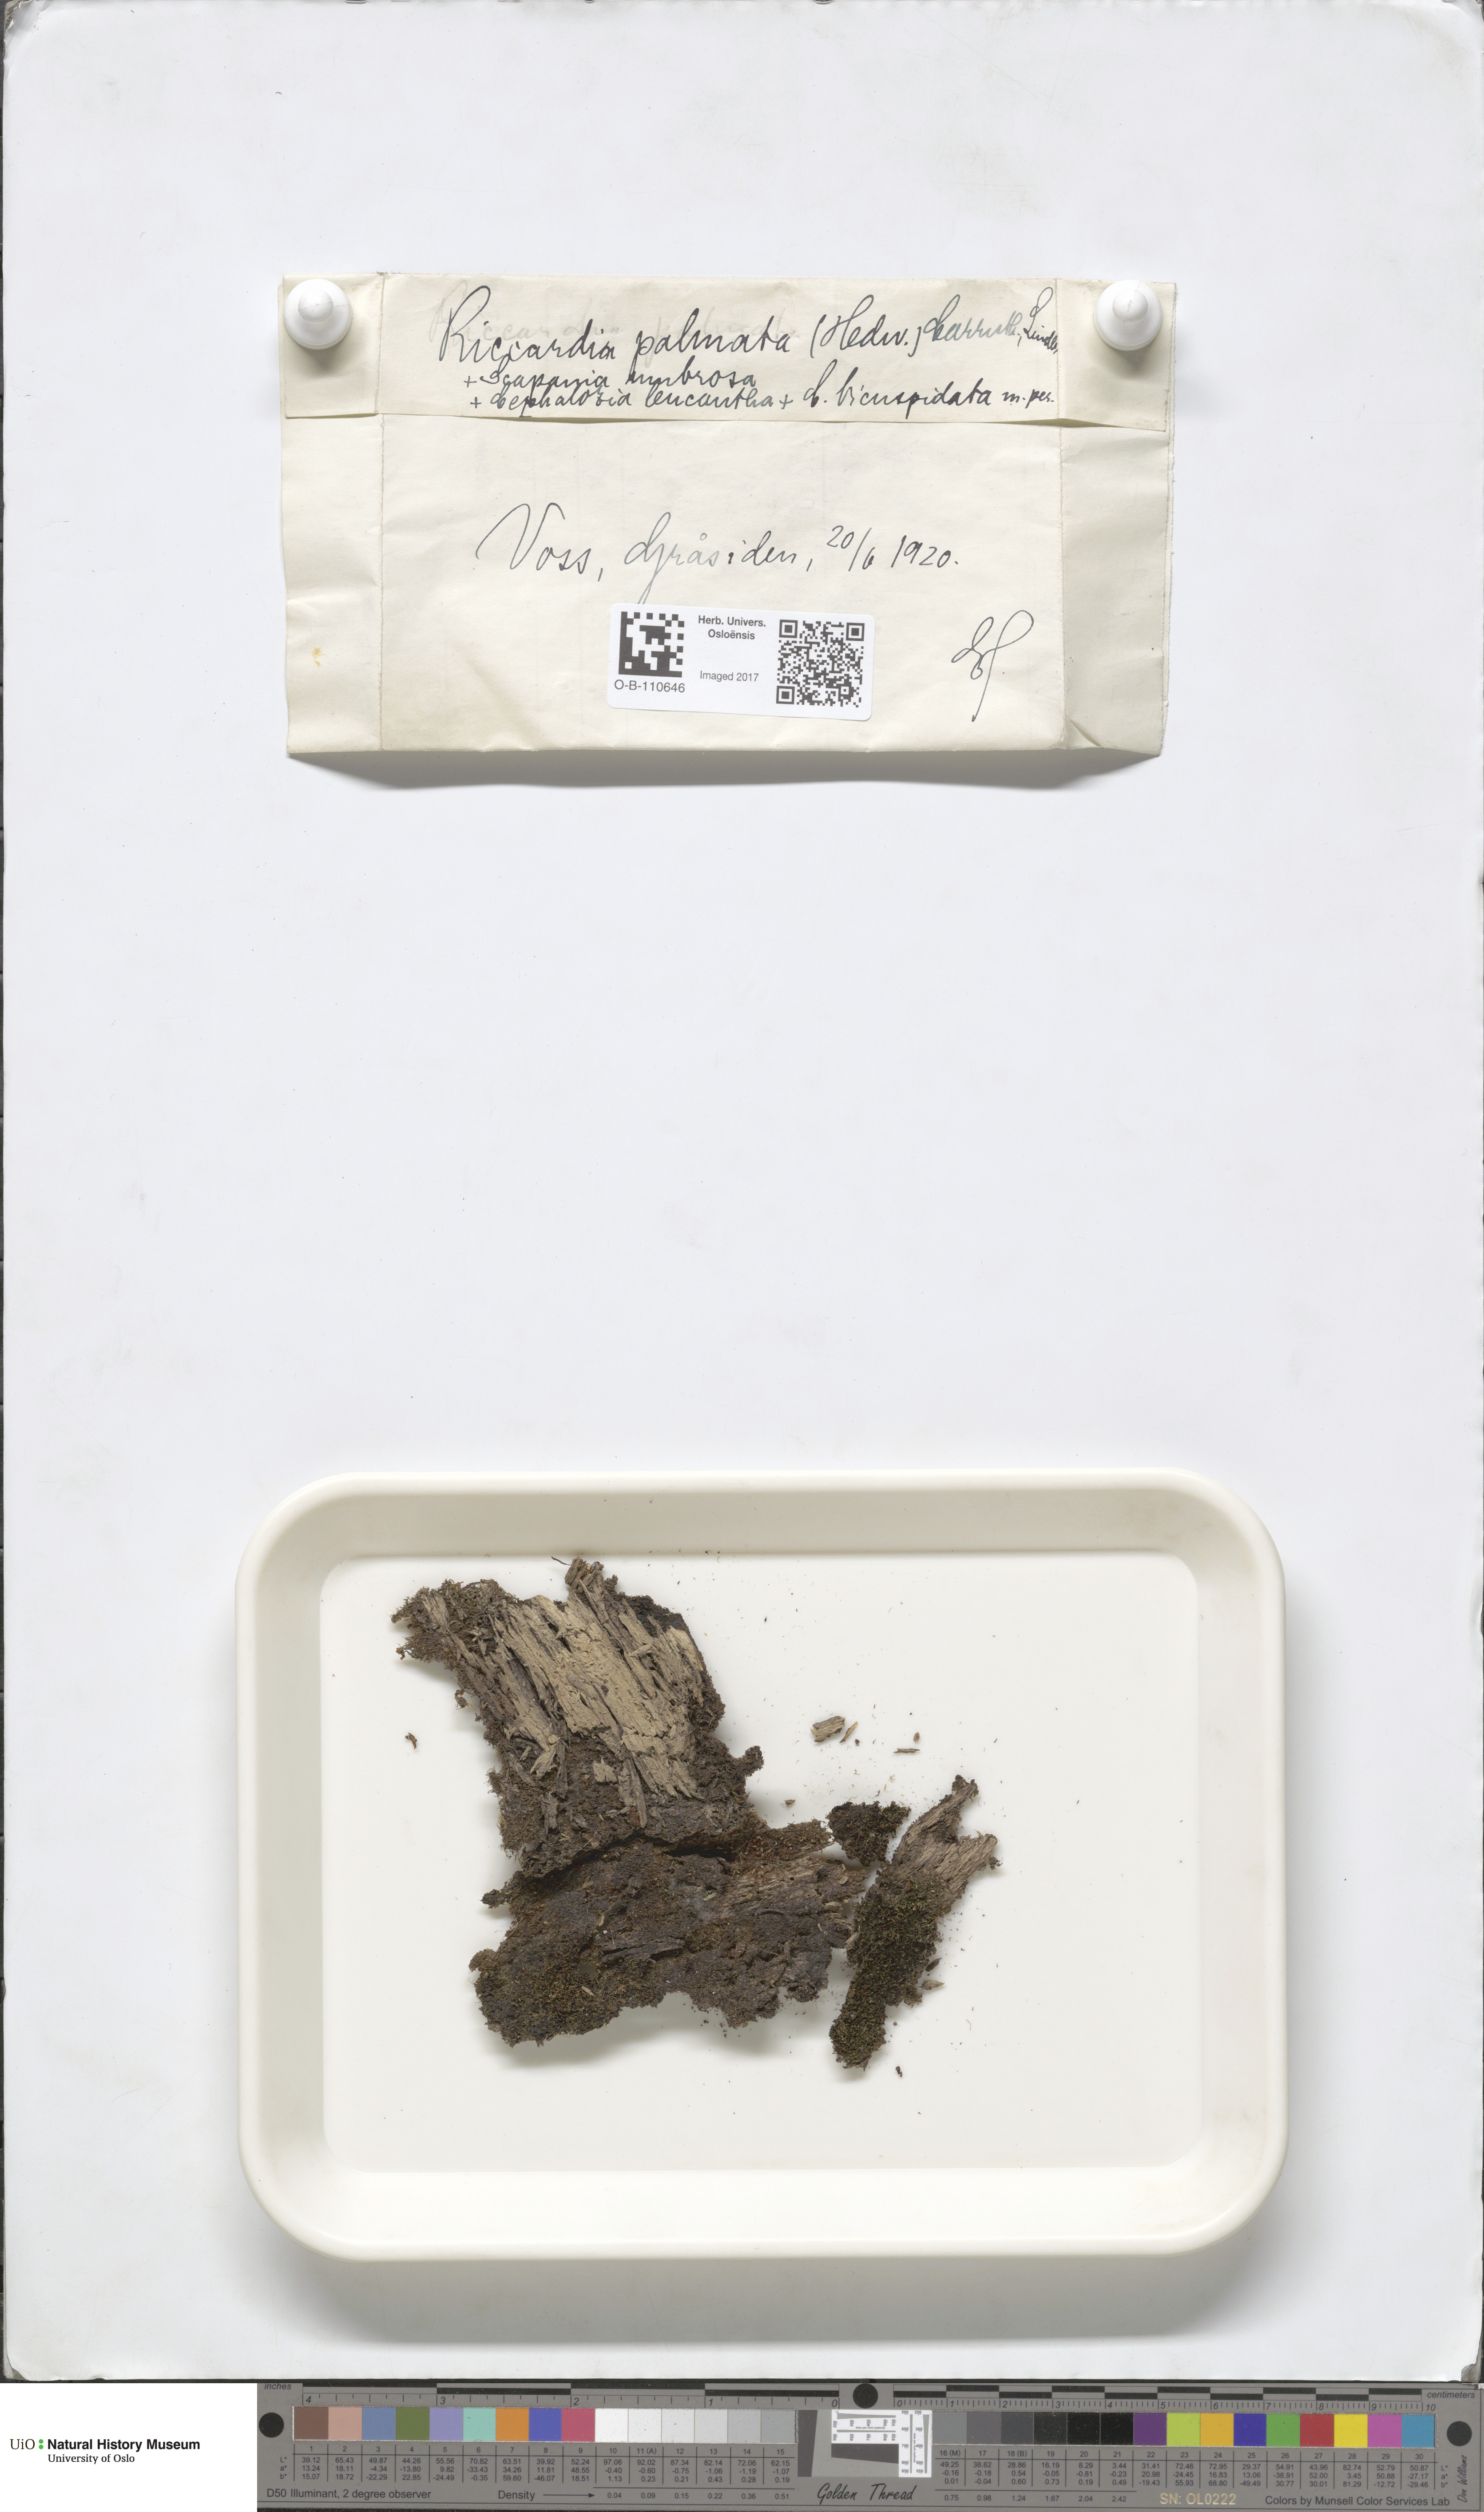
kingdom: Plantae
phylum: Marchantiophyta
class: Jungermanniopsida
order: Metzgeriales
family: Aneuraceae
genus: Riccardia
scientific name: Riccardia palmata
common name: Palmate germanderwort
